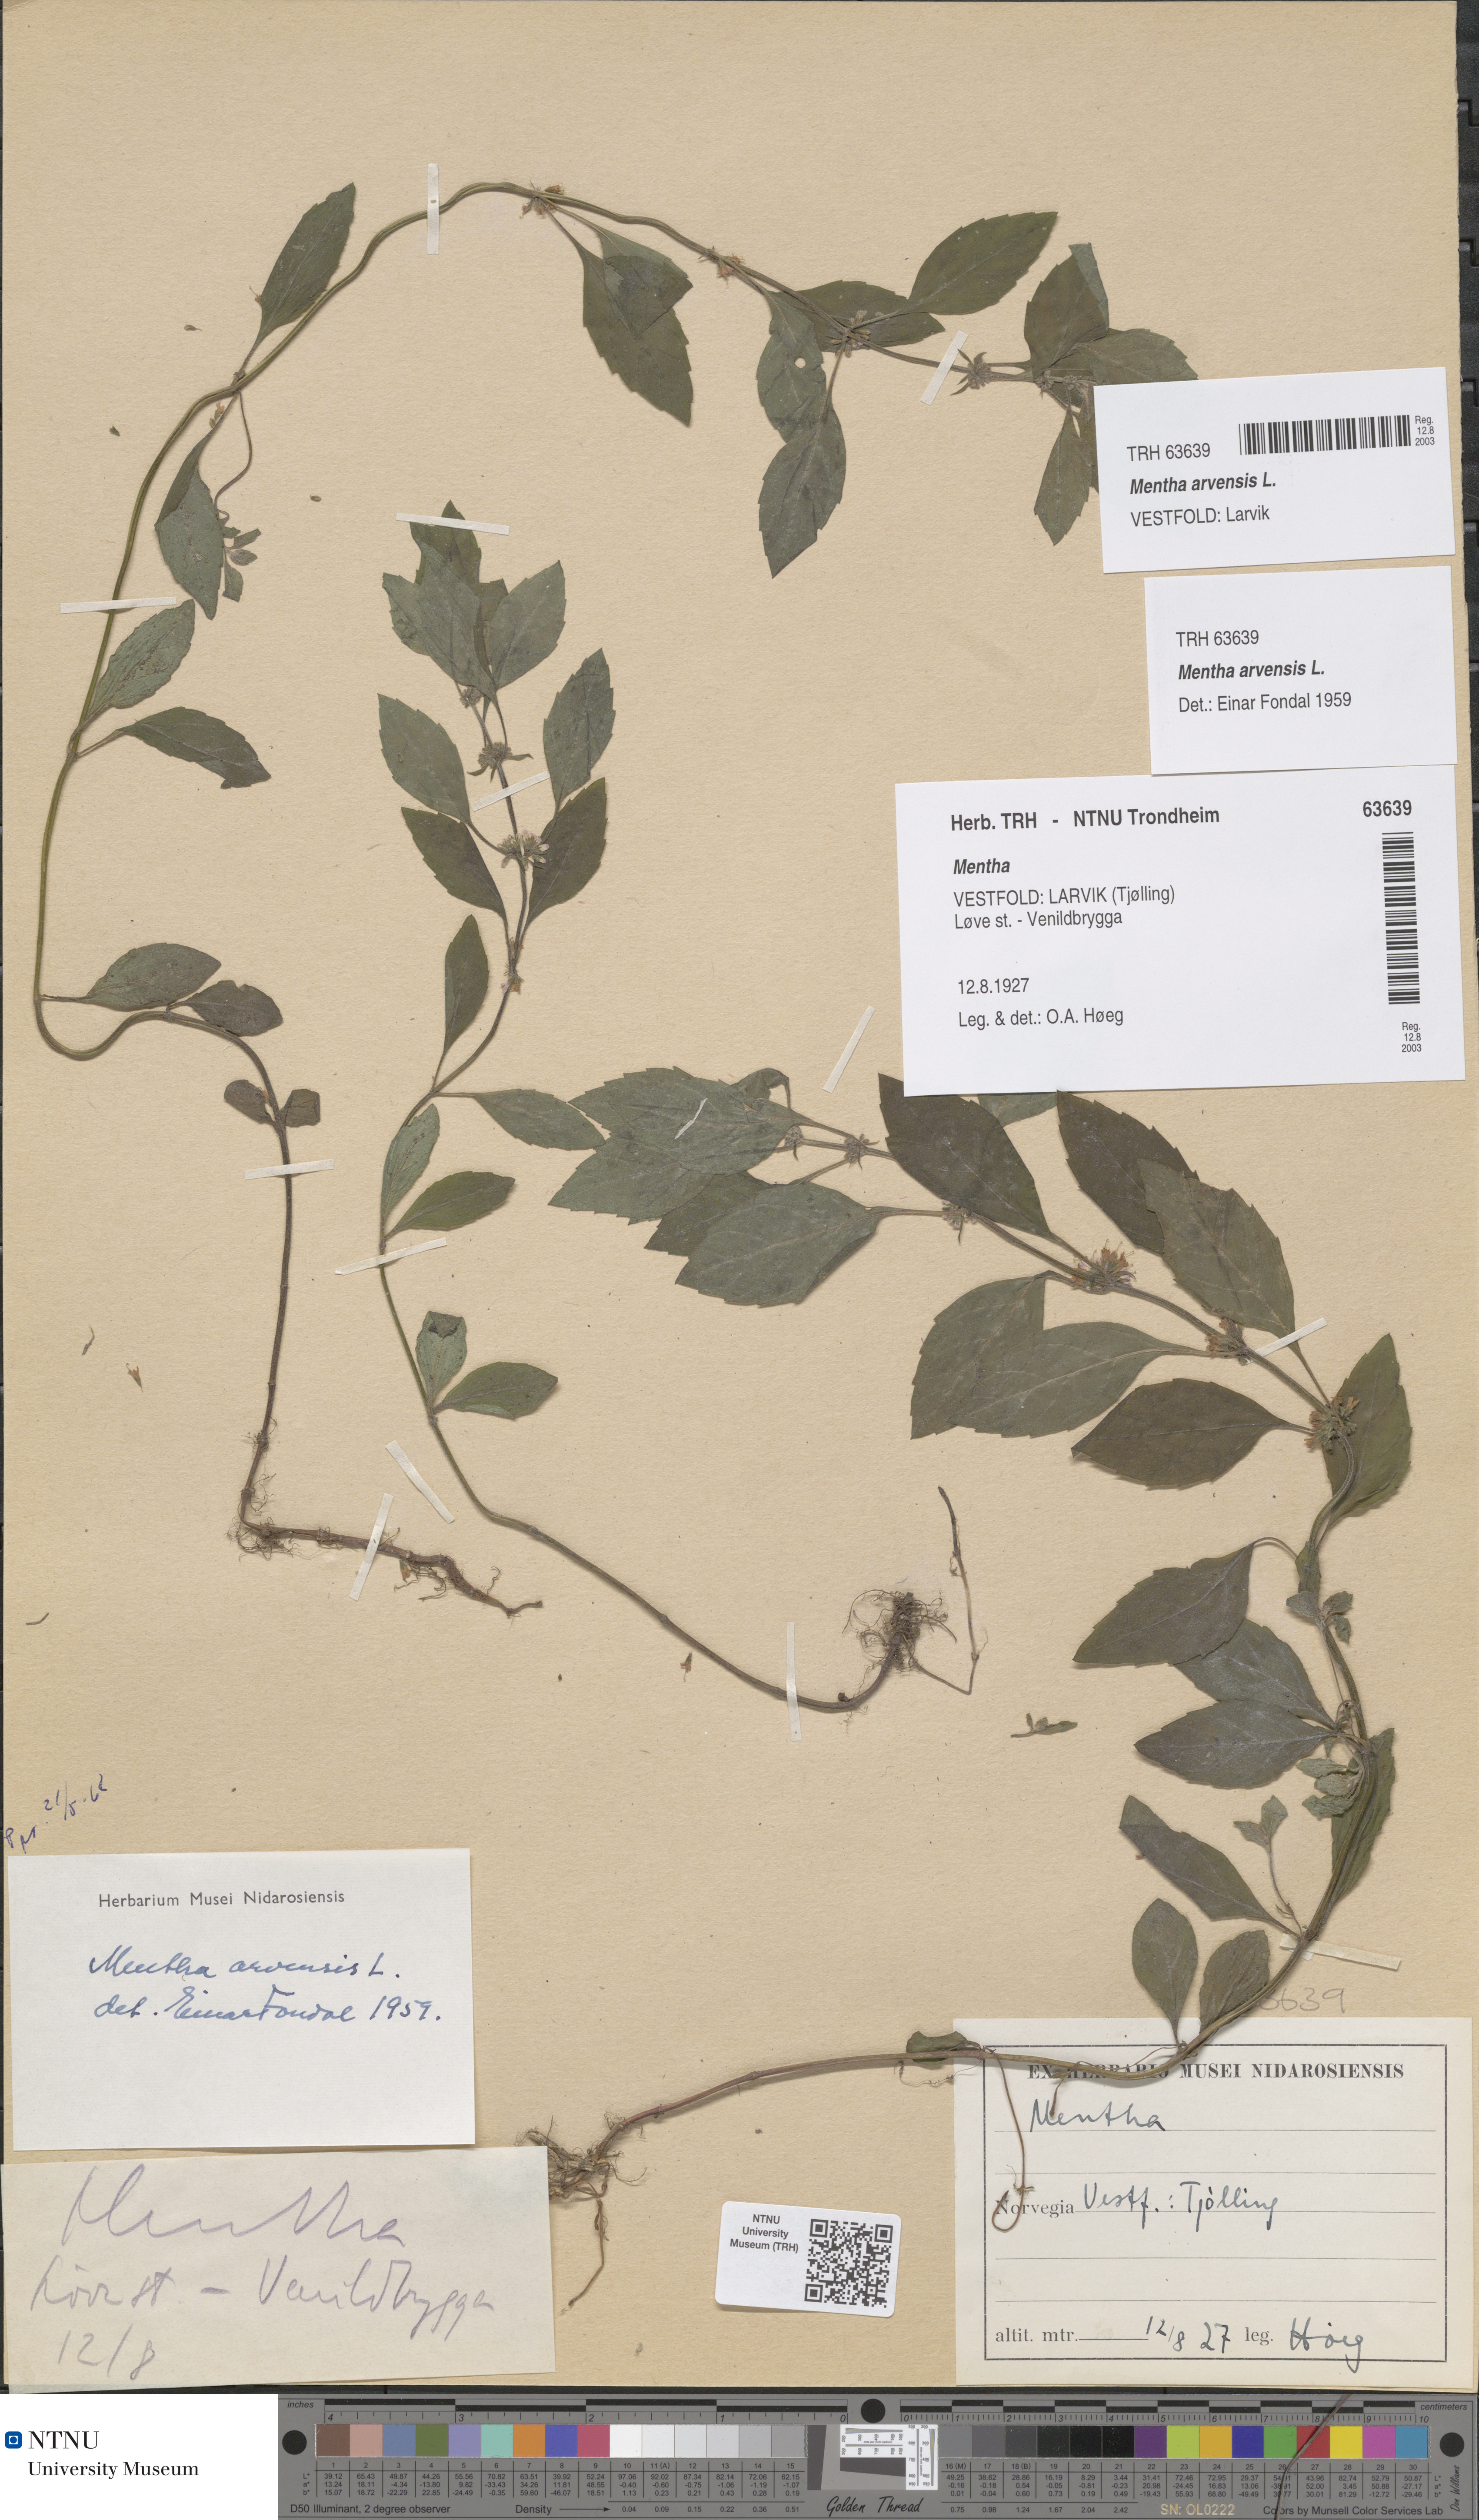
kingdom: Plantae
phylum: Tracheophyta
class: Magnoliopsida
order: Lamiales
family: Lamiaceae
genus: Mentha
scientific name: Mentha arvensis
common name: Corn mint
